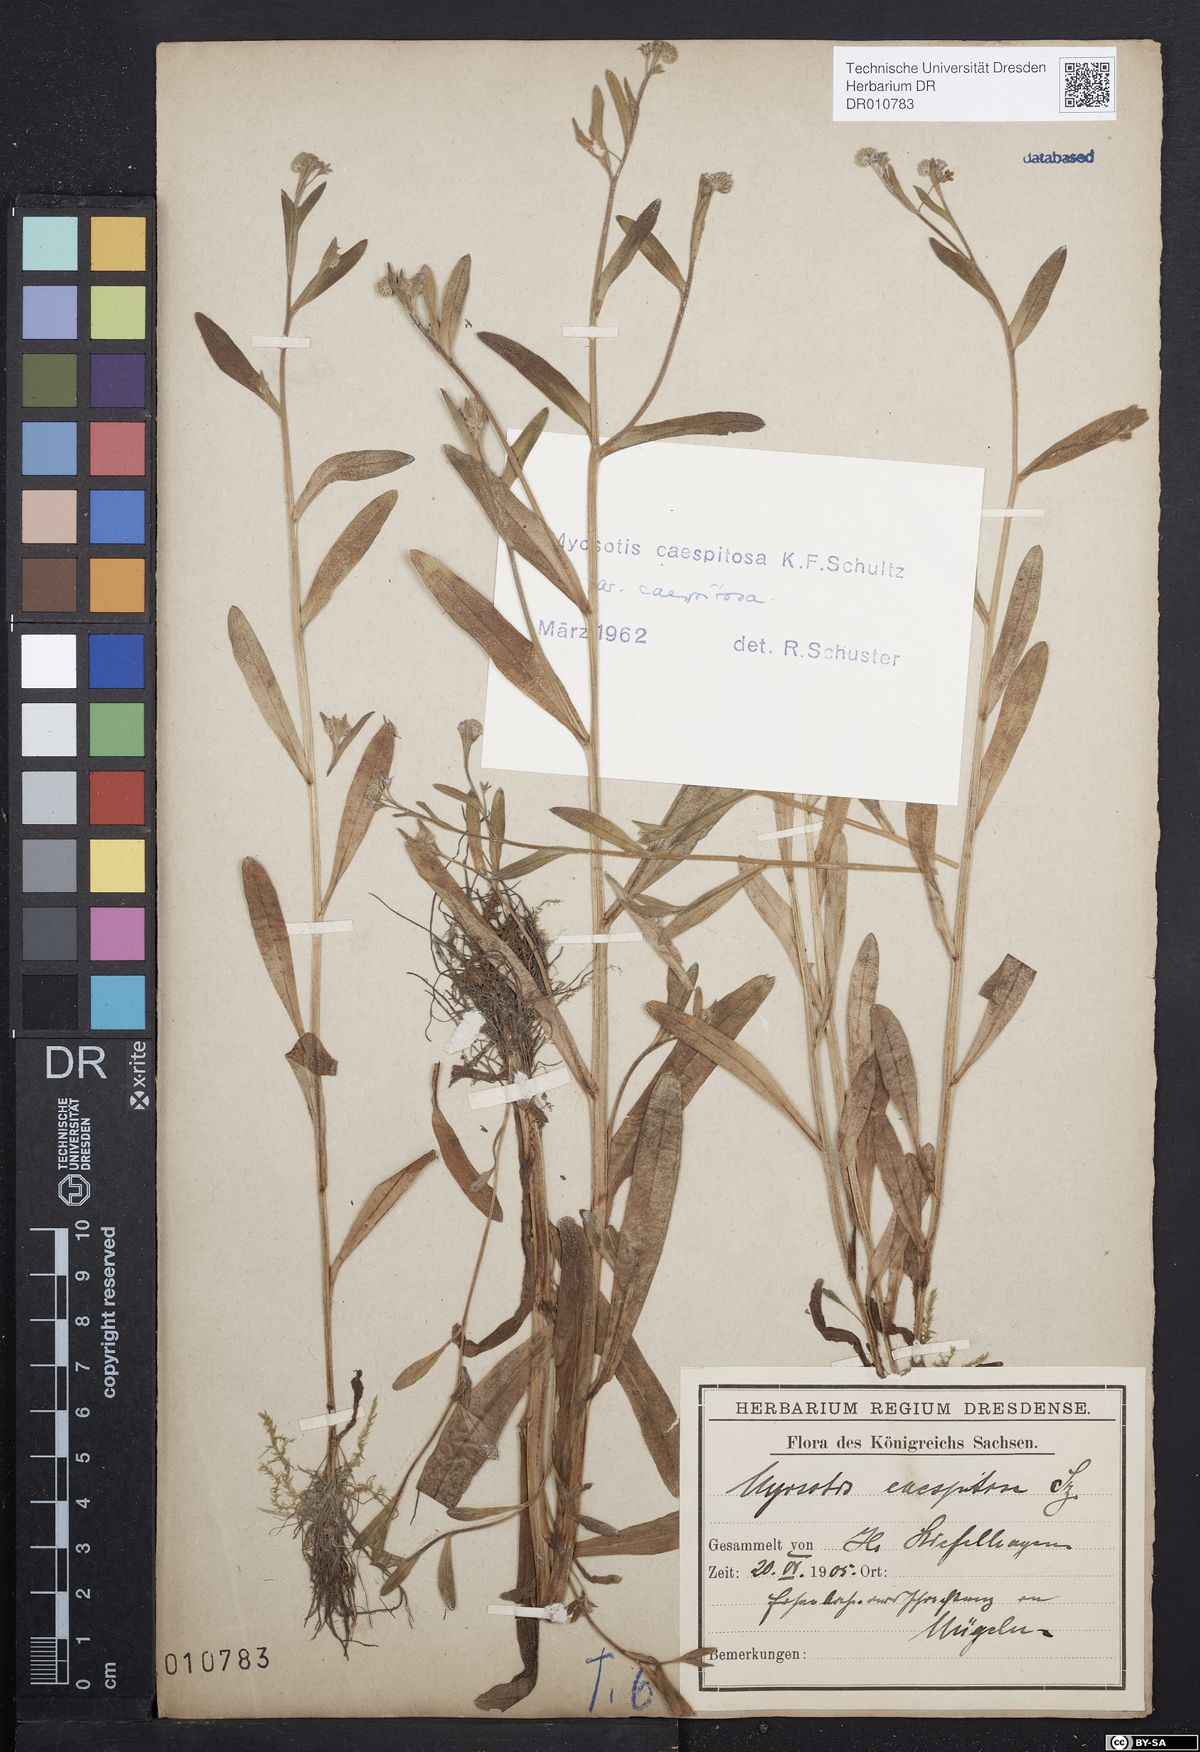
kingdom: Plantae
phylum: Tracheophyta
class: Magnoliopsida
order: Boraginales
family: Boraginaceae
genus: Myosotis
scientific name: Myosotis laxa
